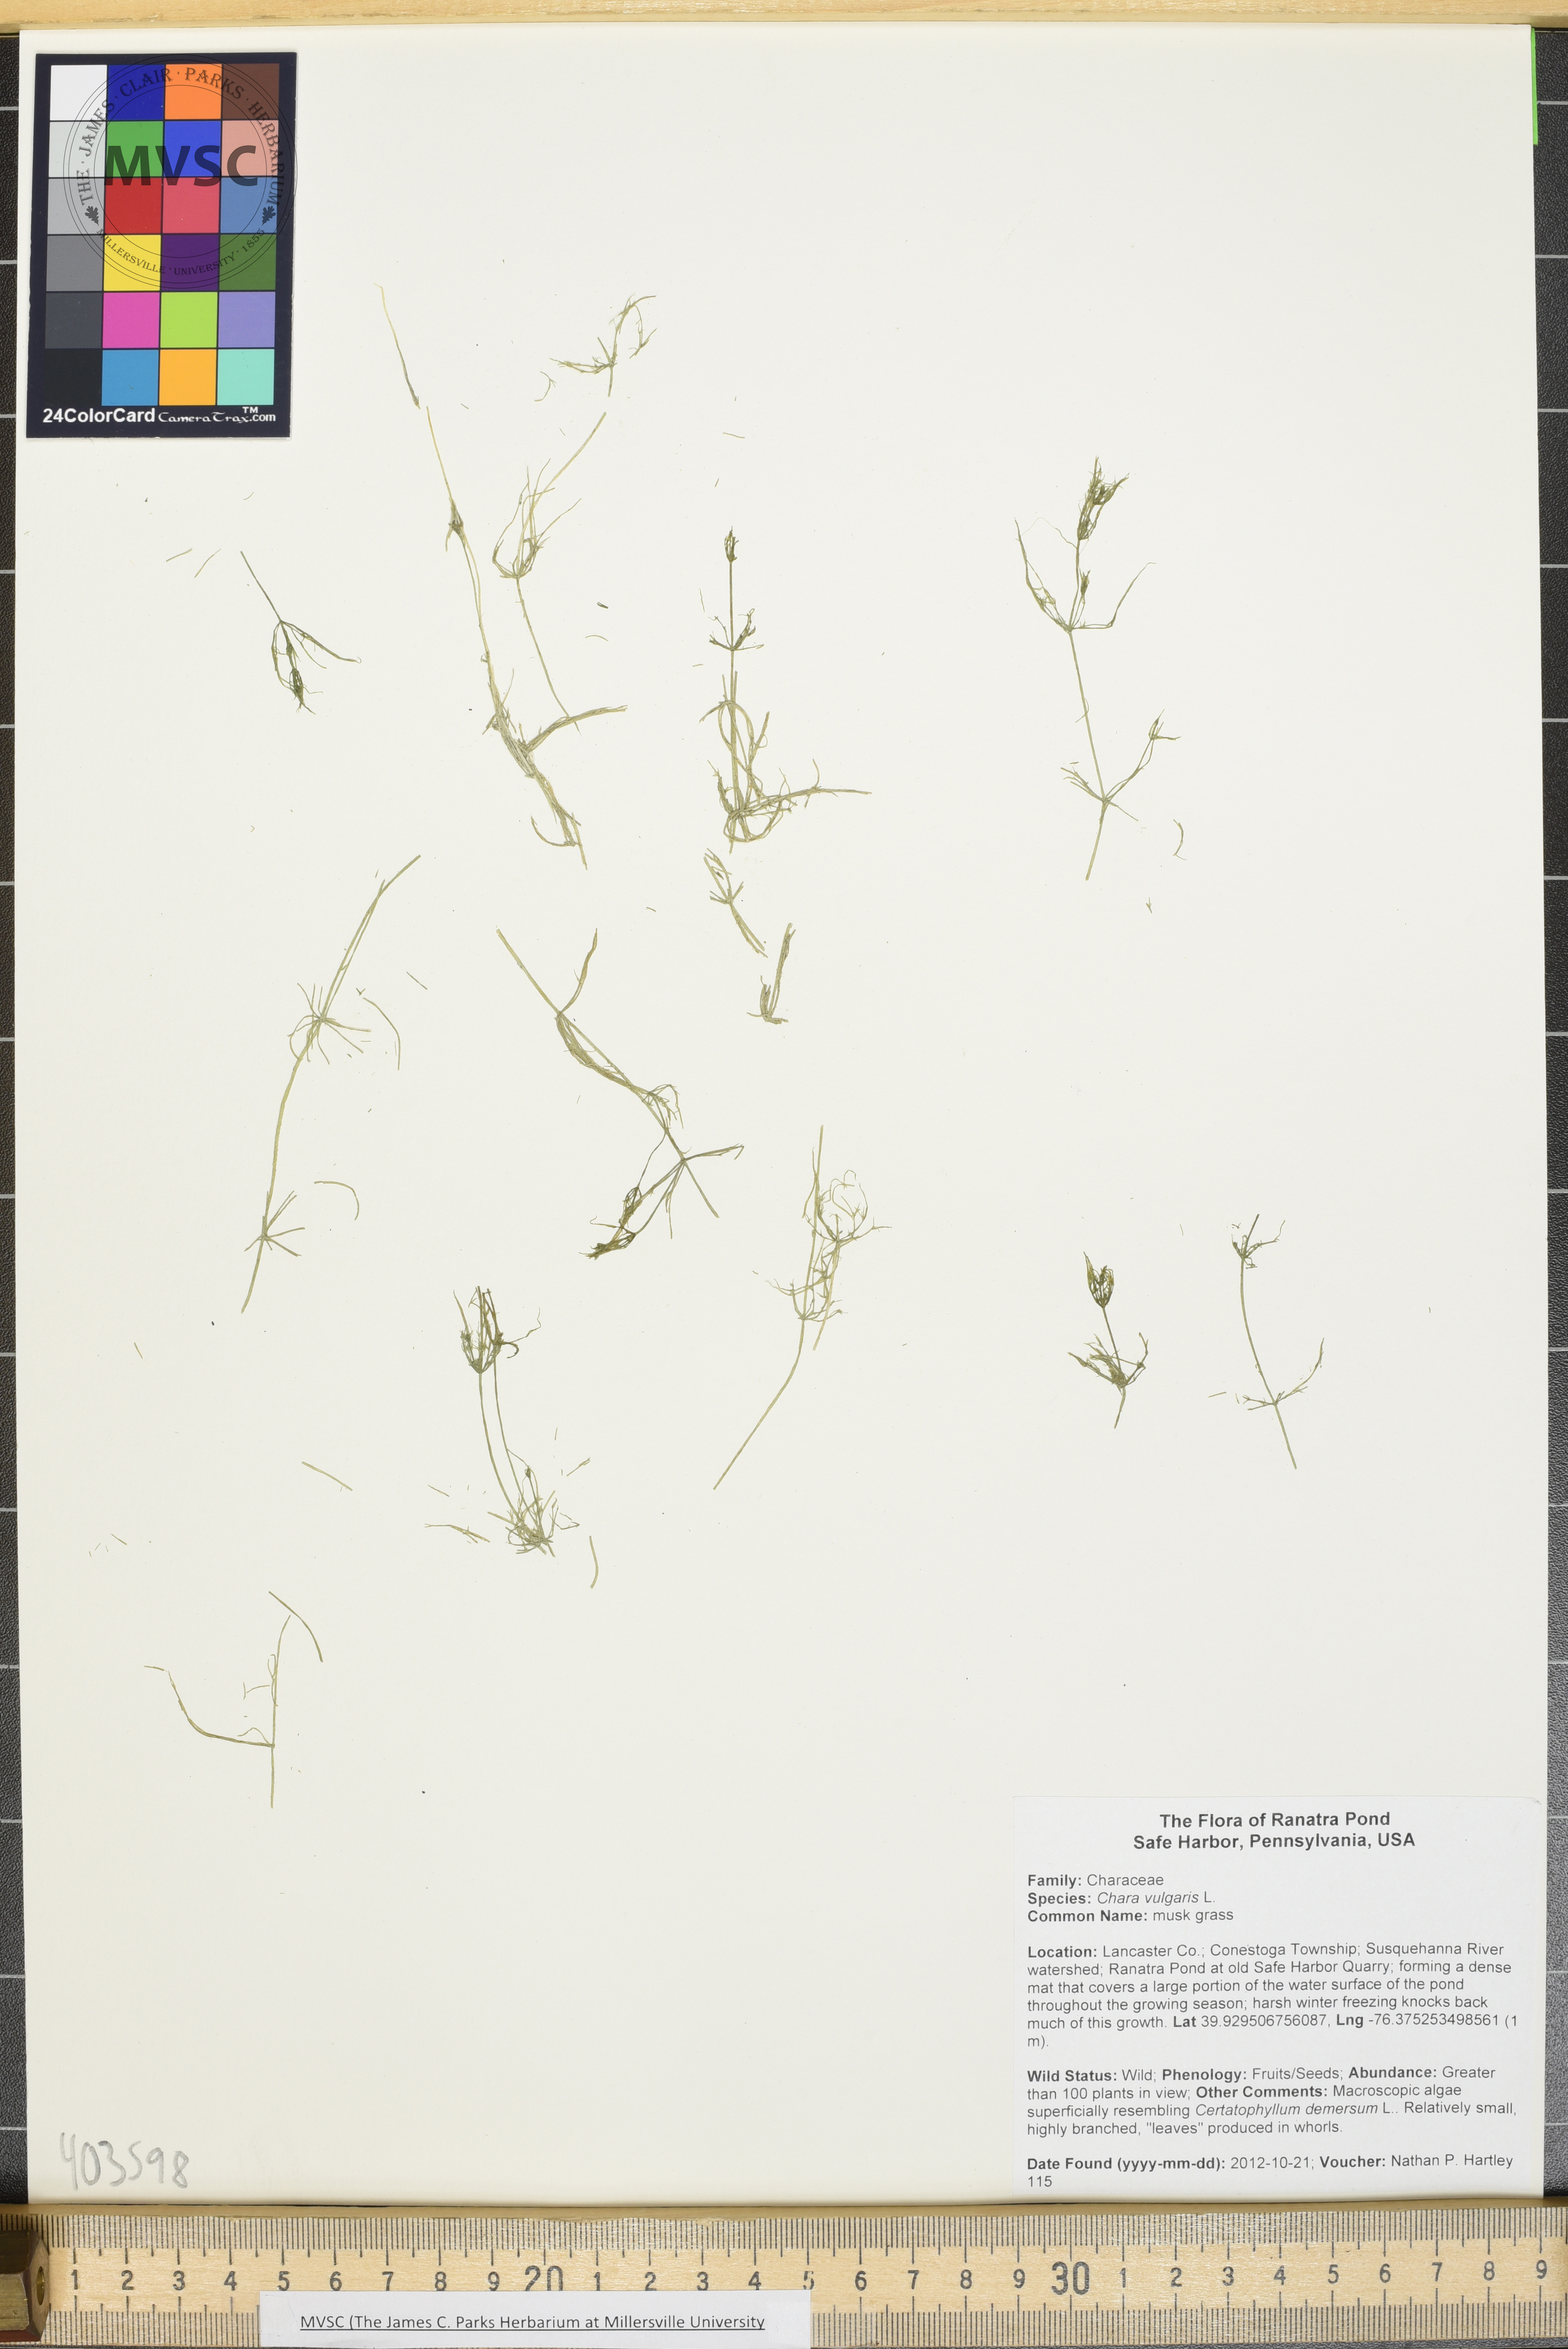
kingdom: Plantae
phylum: Charophyta
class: Charophyceae
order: Charales
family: Characeae
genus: Chara
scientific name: Chara vulgaris
